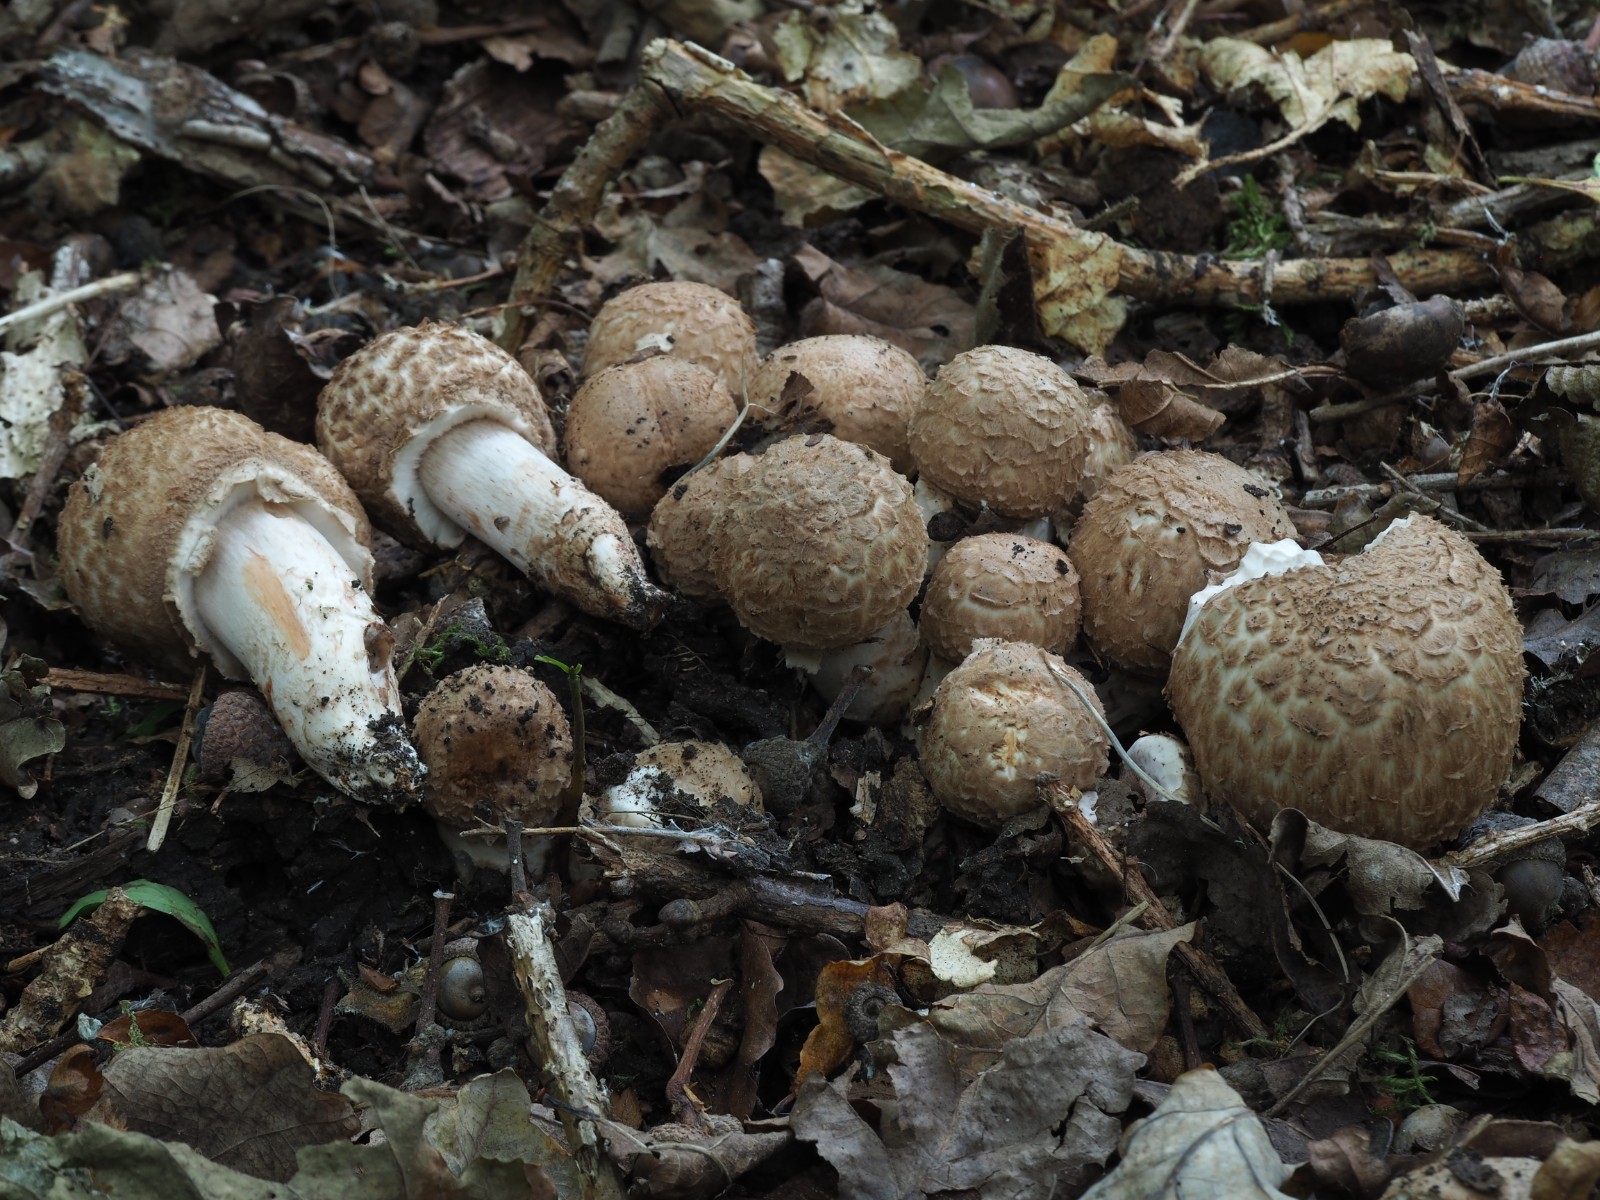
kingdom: Fungi
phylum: Basidiomycota
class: Agaricomycetes
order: Agaricales
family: Agaricaceae
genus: Agaricus
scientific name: Agaricus bohusii
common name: krumskællet champignon
